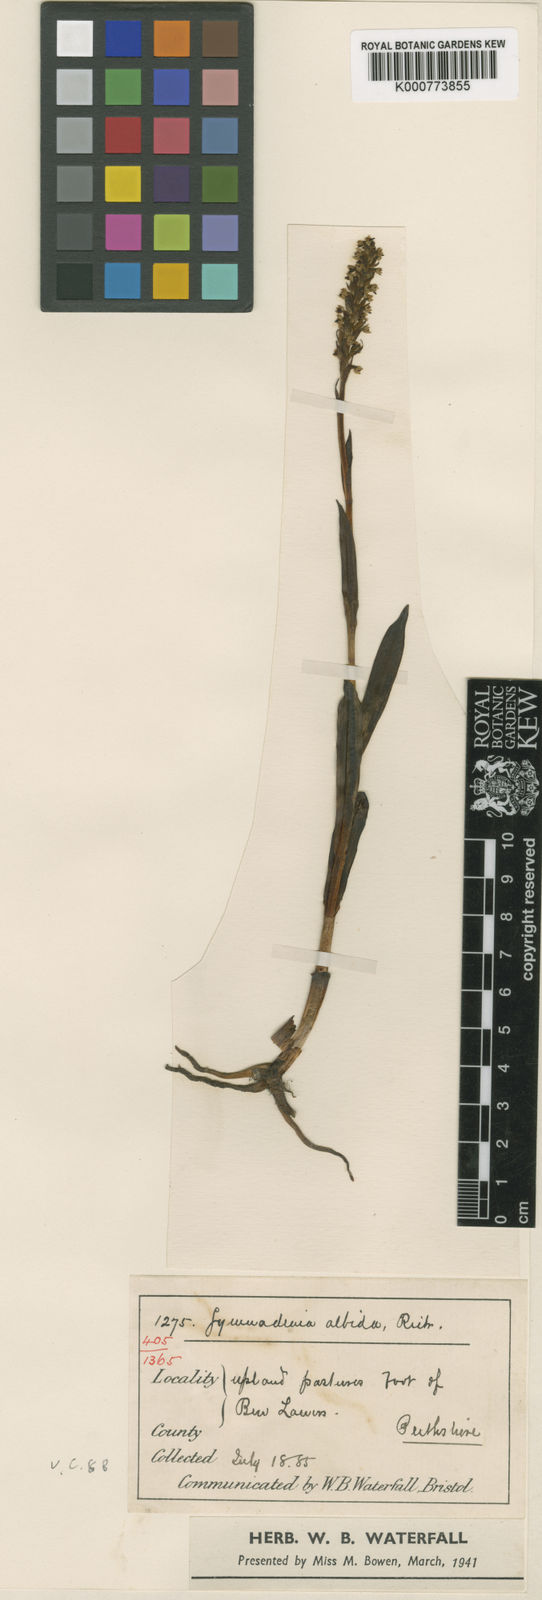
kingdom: Plantae
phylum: Tracheophyta
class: Liliopsida
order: Asparagales
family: Orchidaceae
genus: Pseudorchis
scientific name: Pseudorchis
